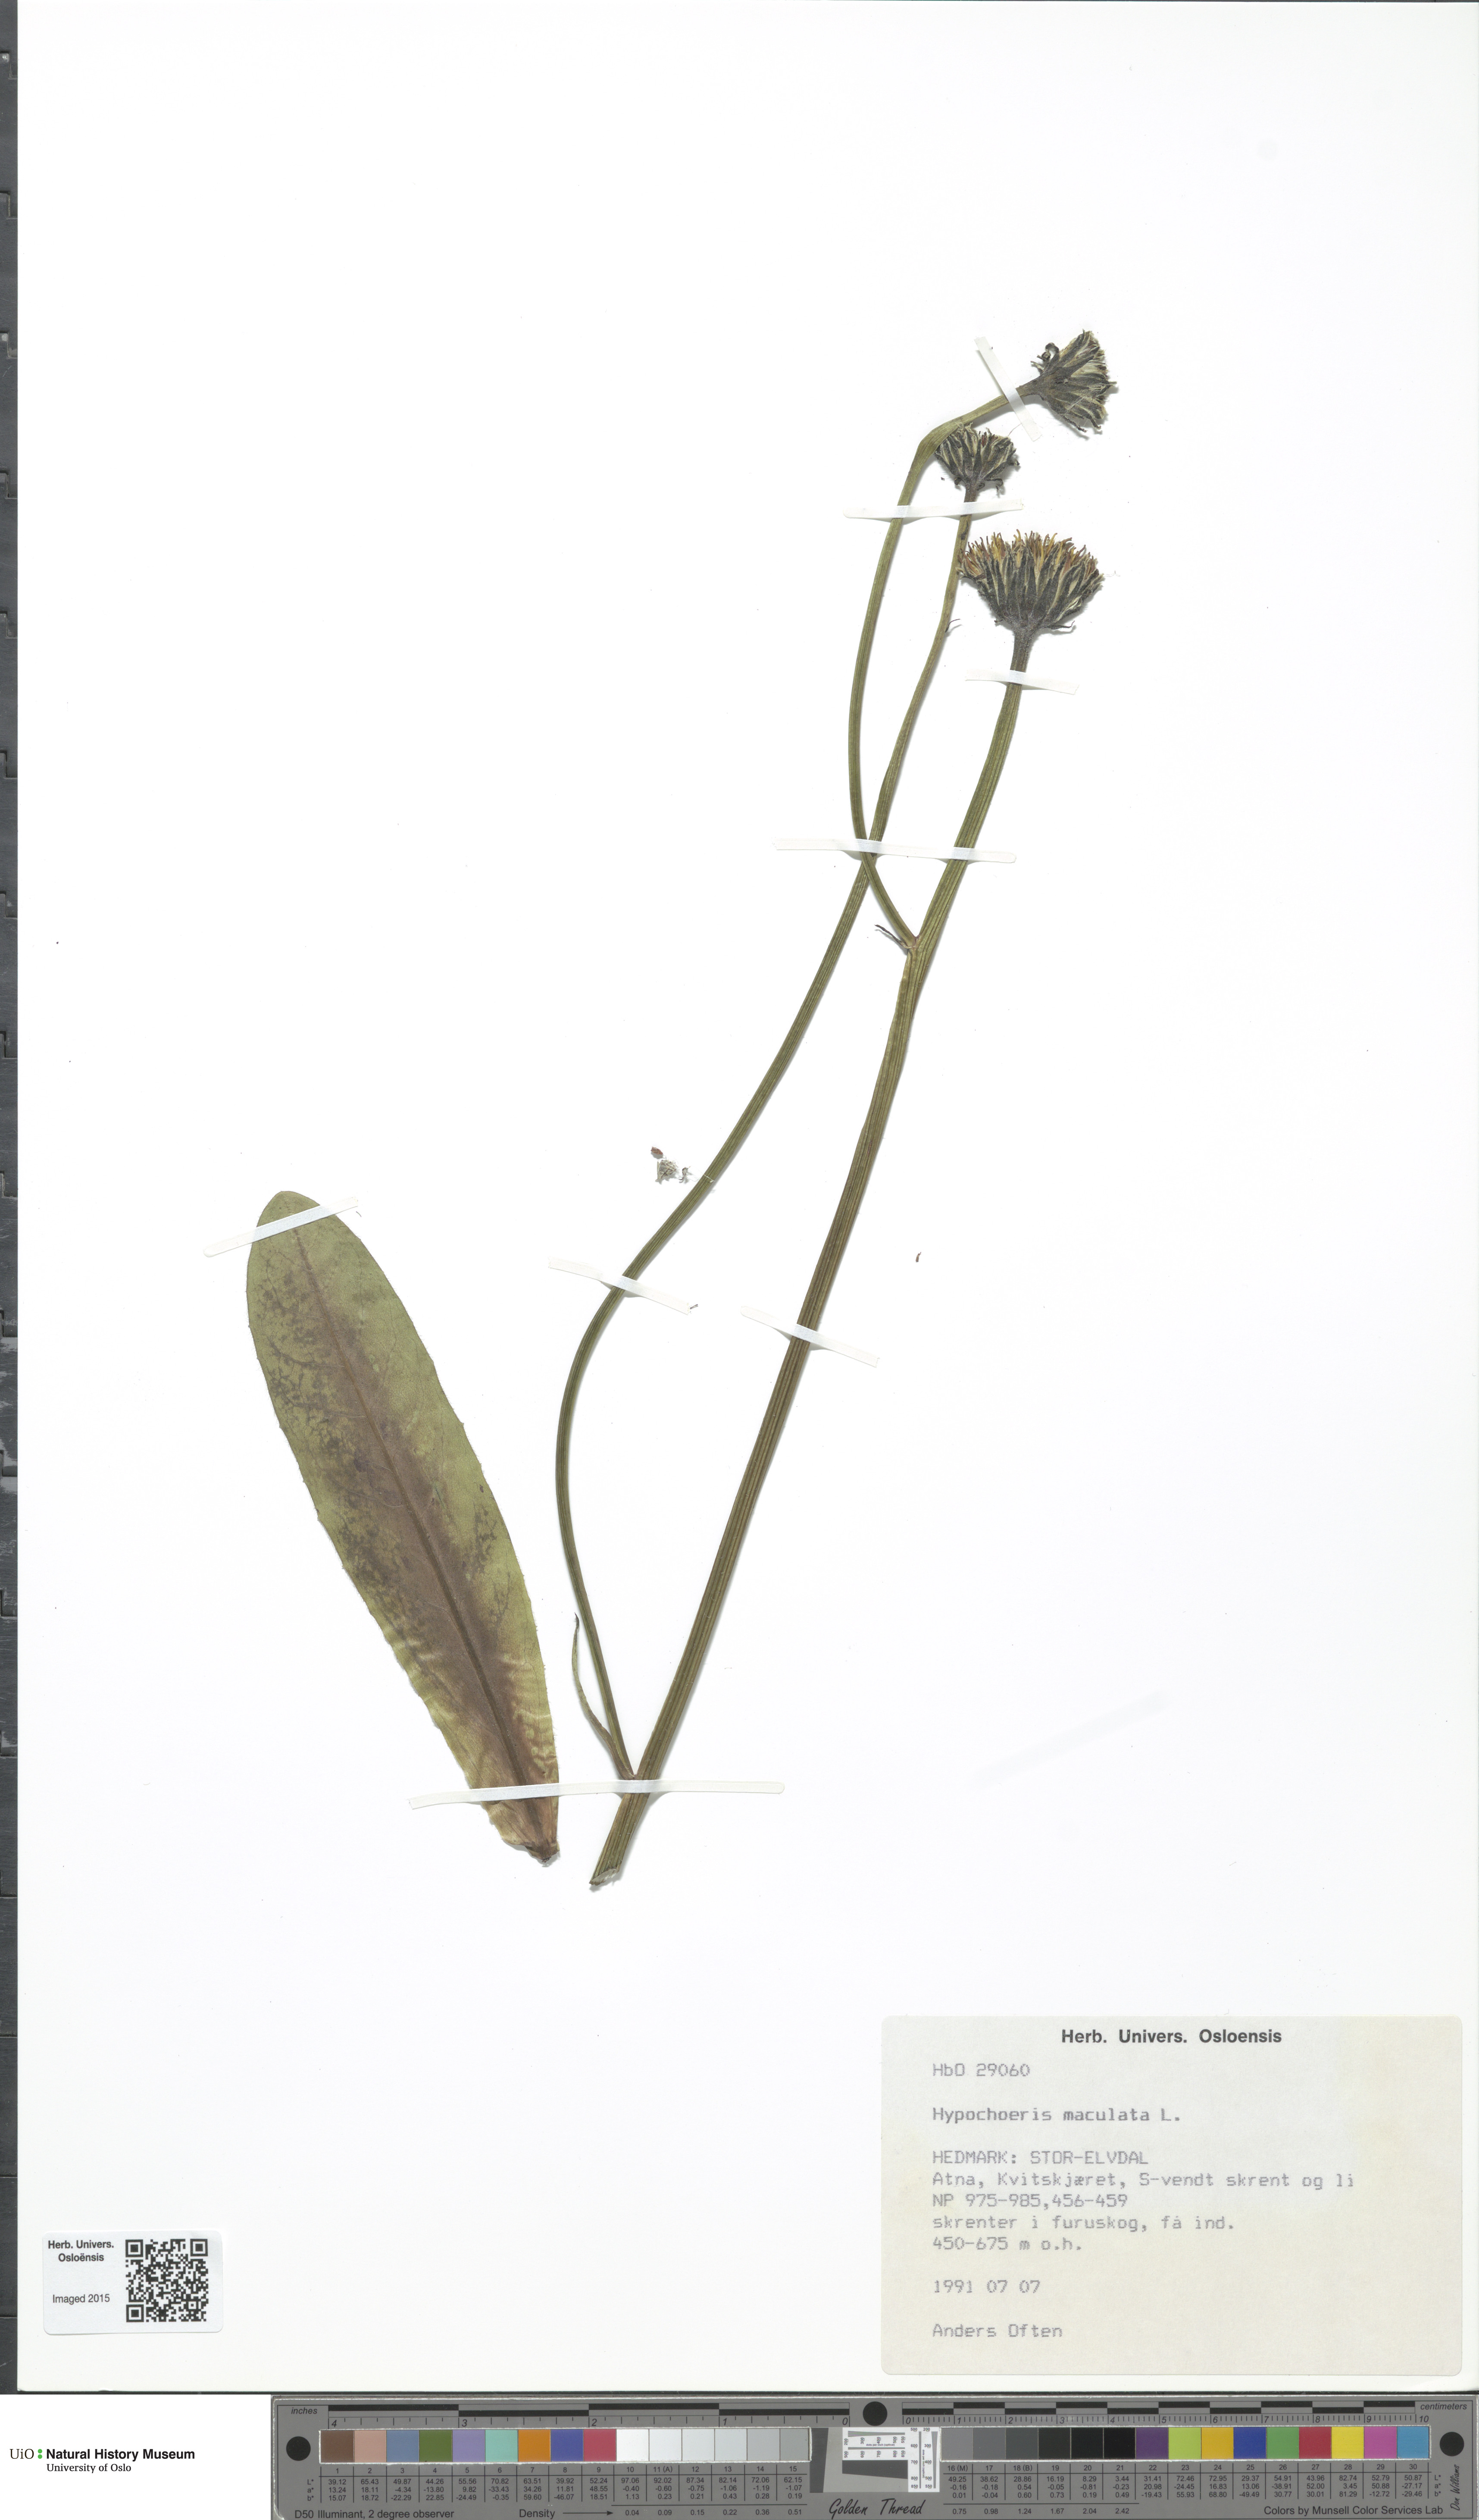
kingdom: Plantae
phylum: Tracheophyta
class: Magnoliopsida
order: Asterales
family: Asteraceae
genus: Trommsdorffia
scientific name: Trommsdorffia maculata
